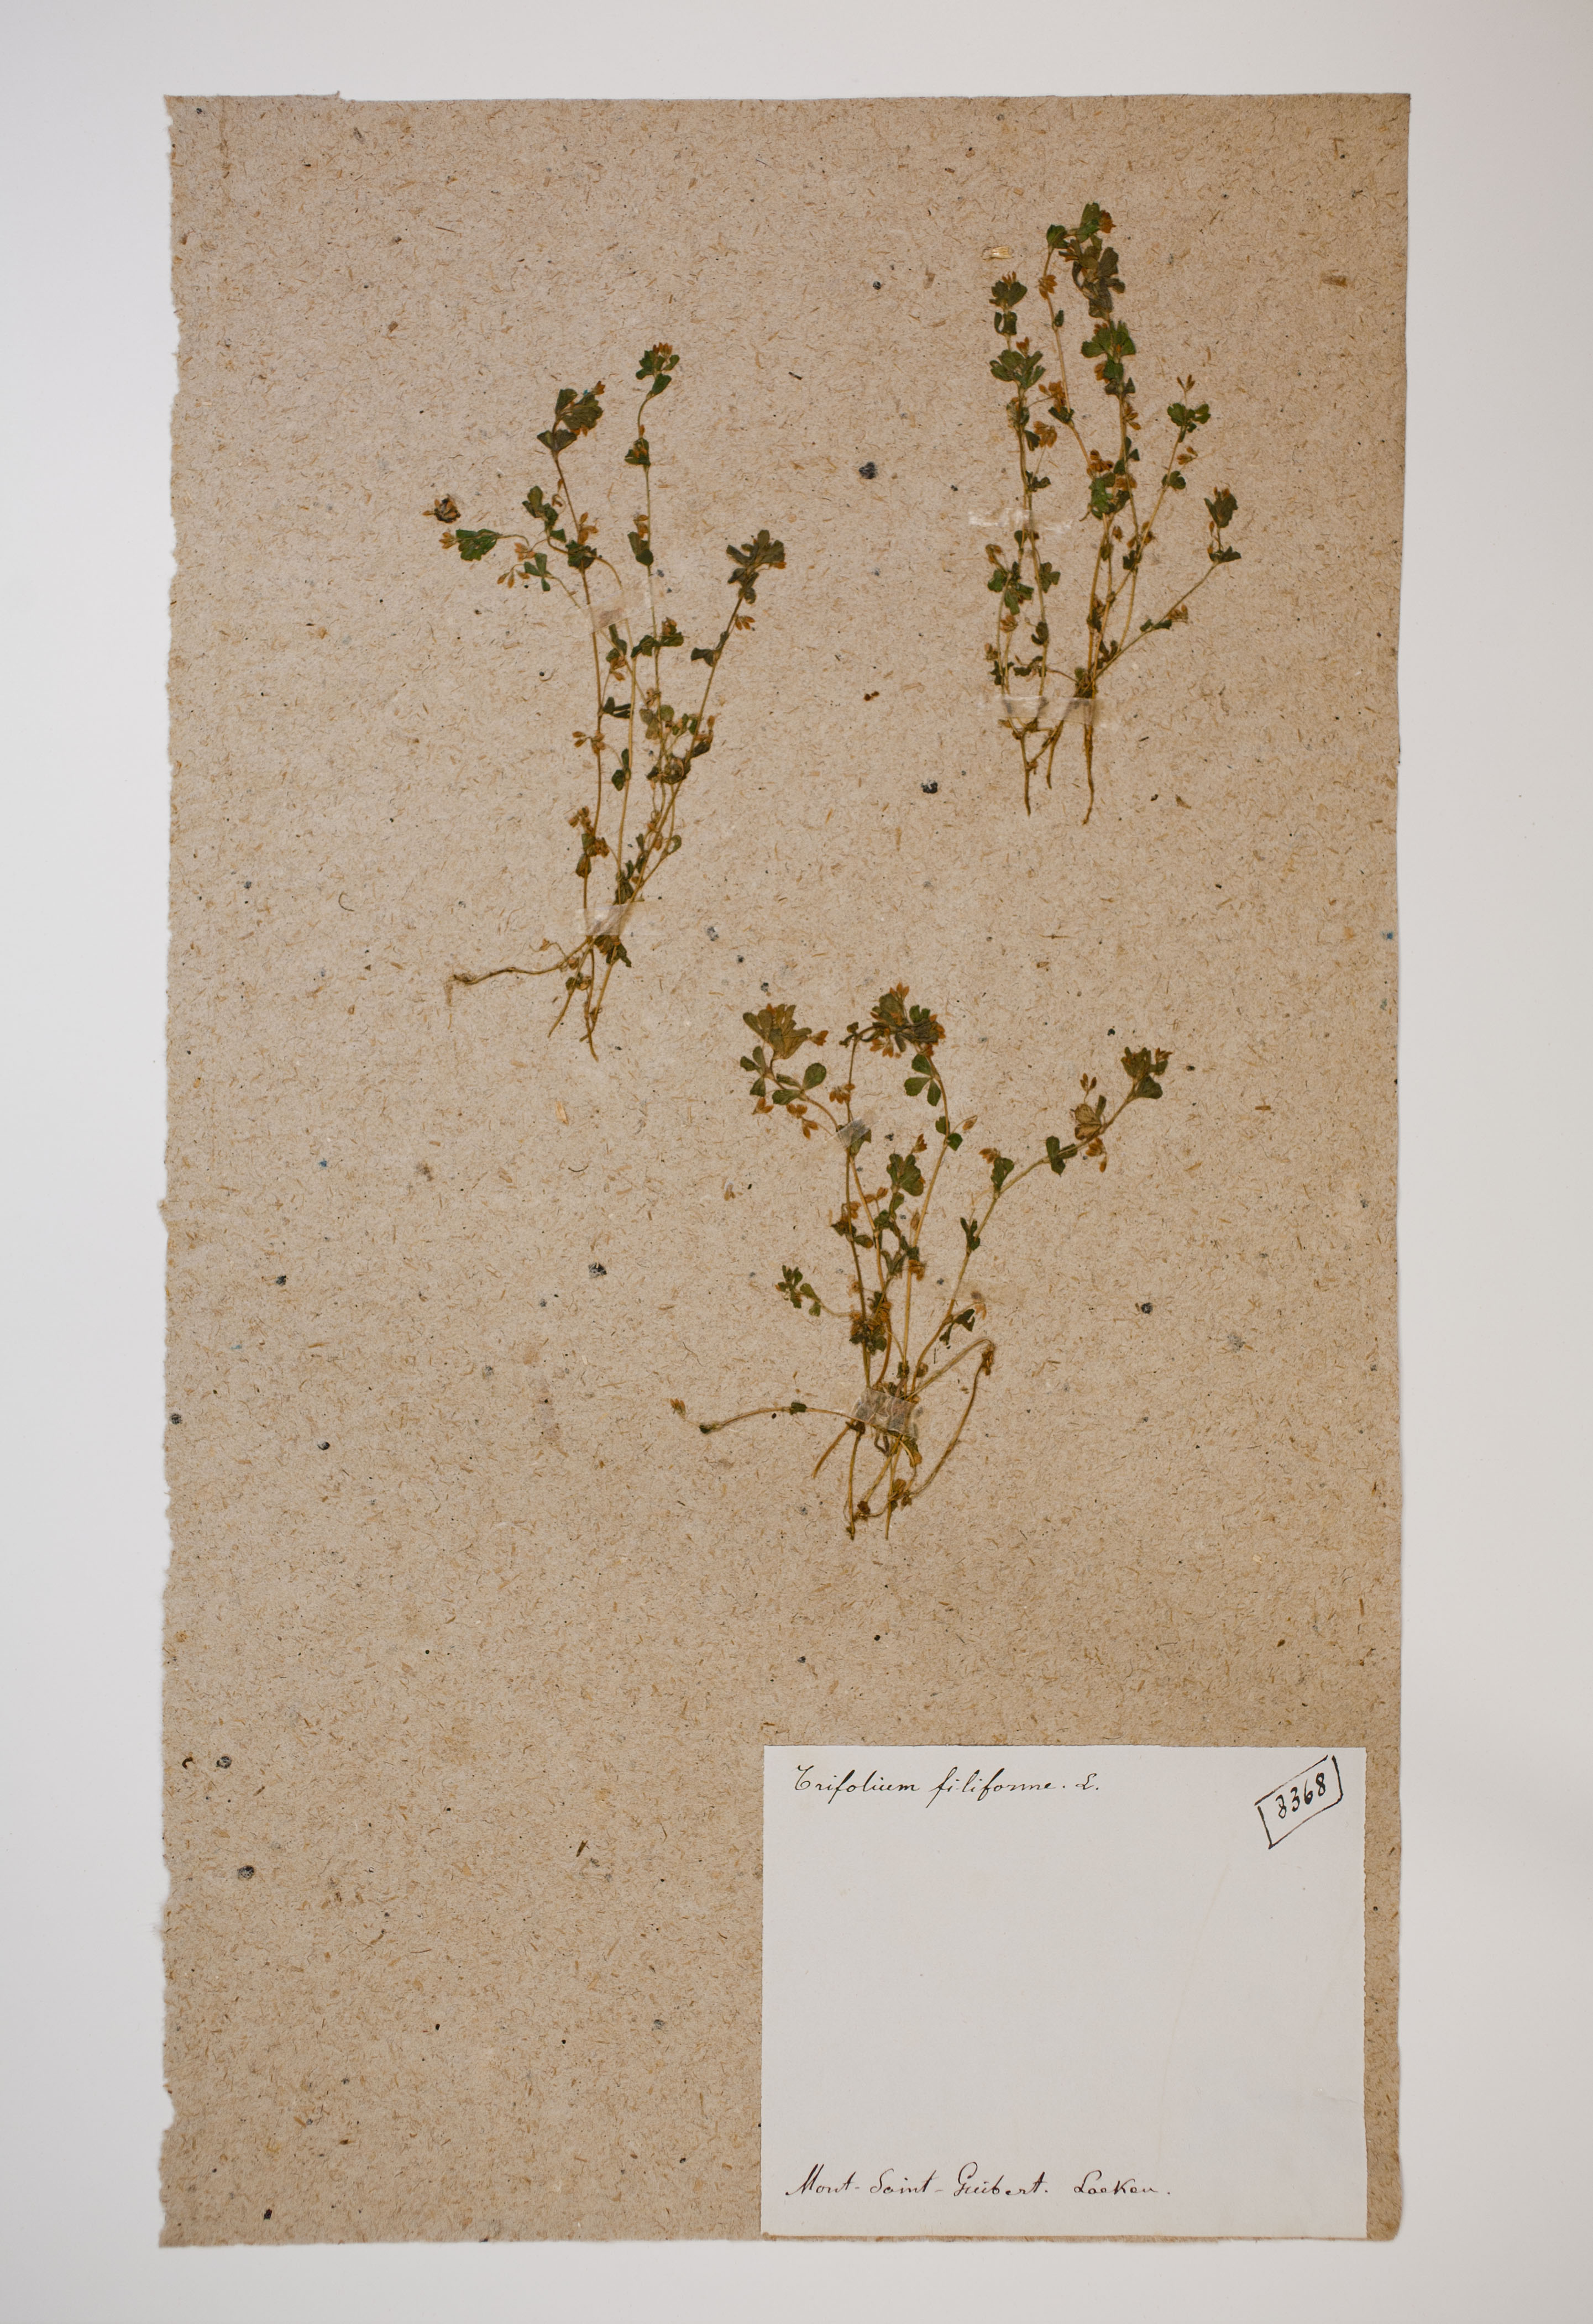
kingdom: Plantae
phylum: Tracheophyta
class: Magnoliopsida
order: Fabales
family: Fabaceae
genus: Trifolium
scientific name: Trifolium micranthum
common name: Slender trefoil
